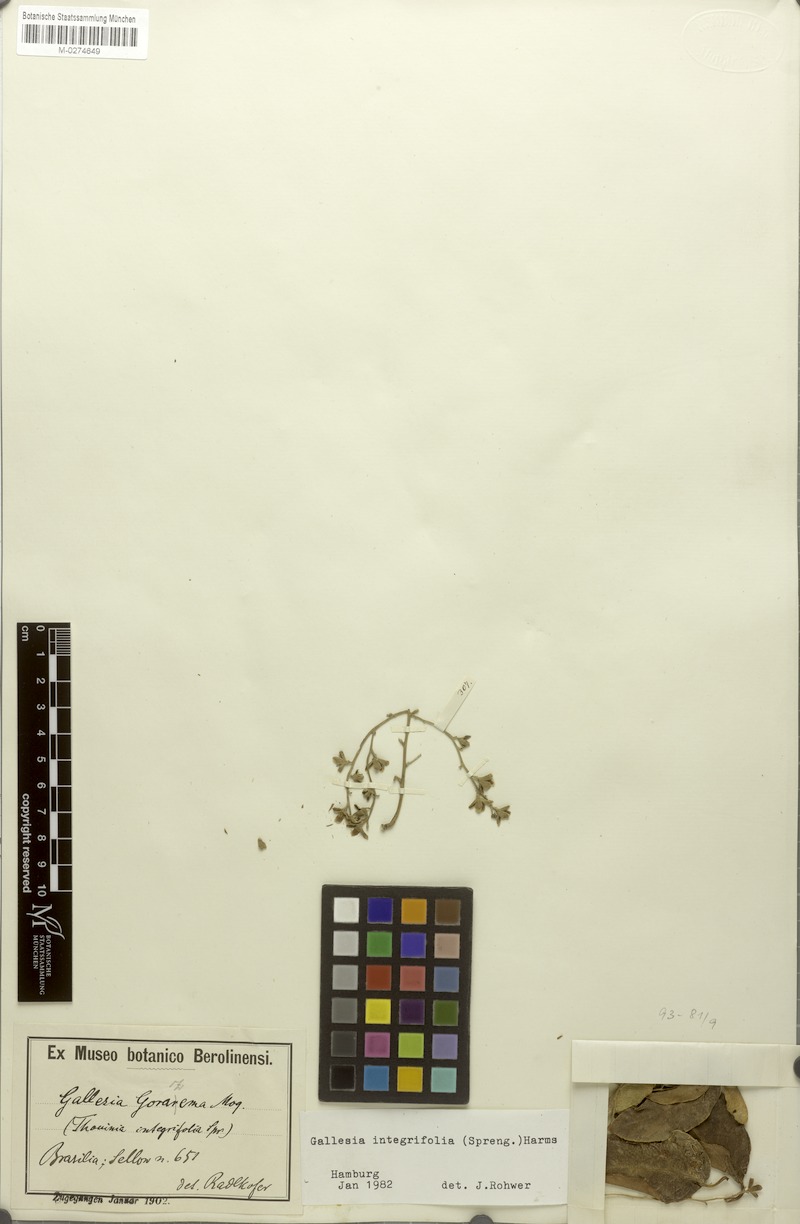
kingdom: Plantae
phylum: Tracheophyta
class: Magnoliopsida
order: Caryophyllales
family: Phytolaccaceae
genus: Gallesia
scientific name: Gallesia integrifolia
